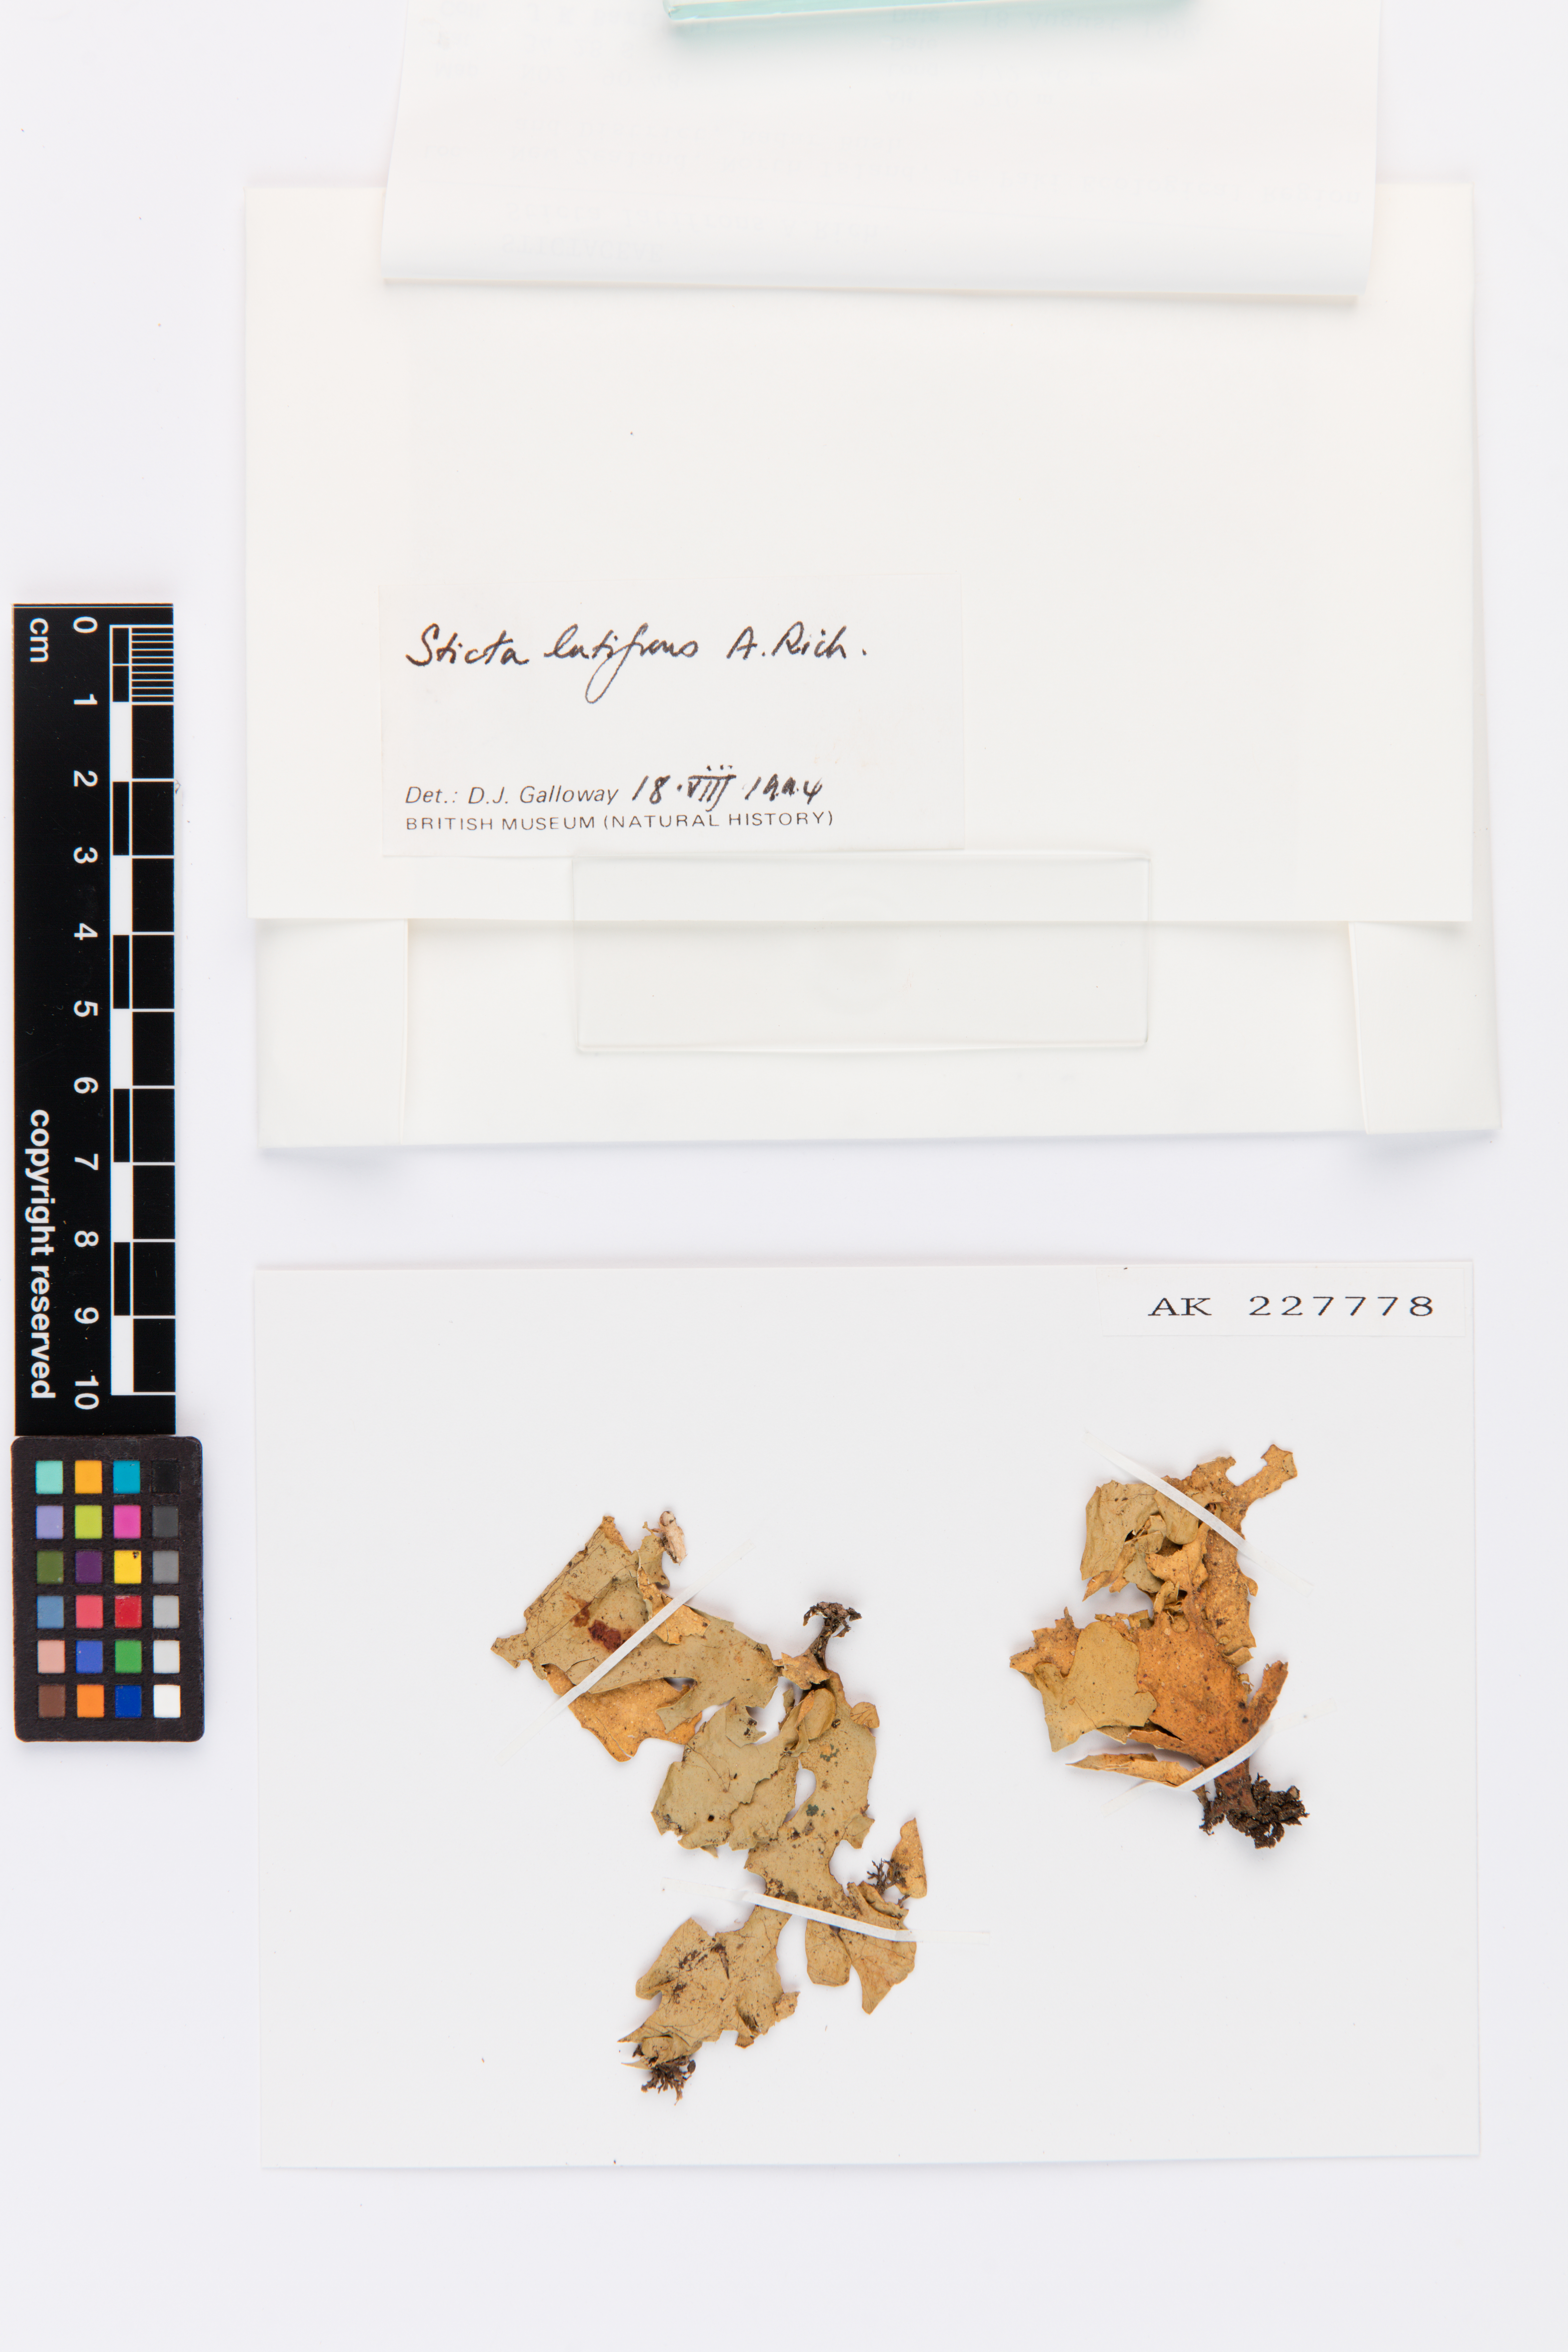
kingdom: Fungi
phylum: Ascomycota
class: Lecanoromycetes
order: Peltigerales
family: Lobariaceae
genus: Sticta
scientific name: Sticta latifrons
